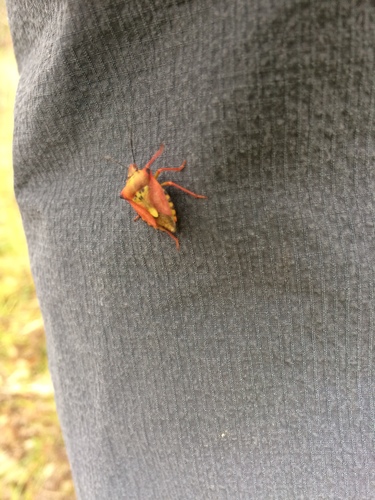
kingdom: Animalia
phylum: Arthropoda
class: Insecta
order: Hemiptera
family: Pentatomidae
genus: Carpocoris
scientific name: Carpocoris mediterraneus
